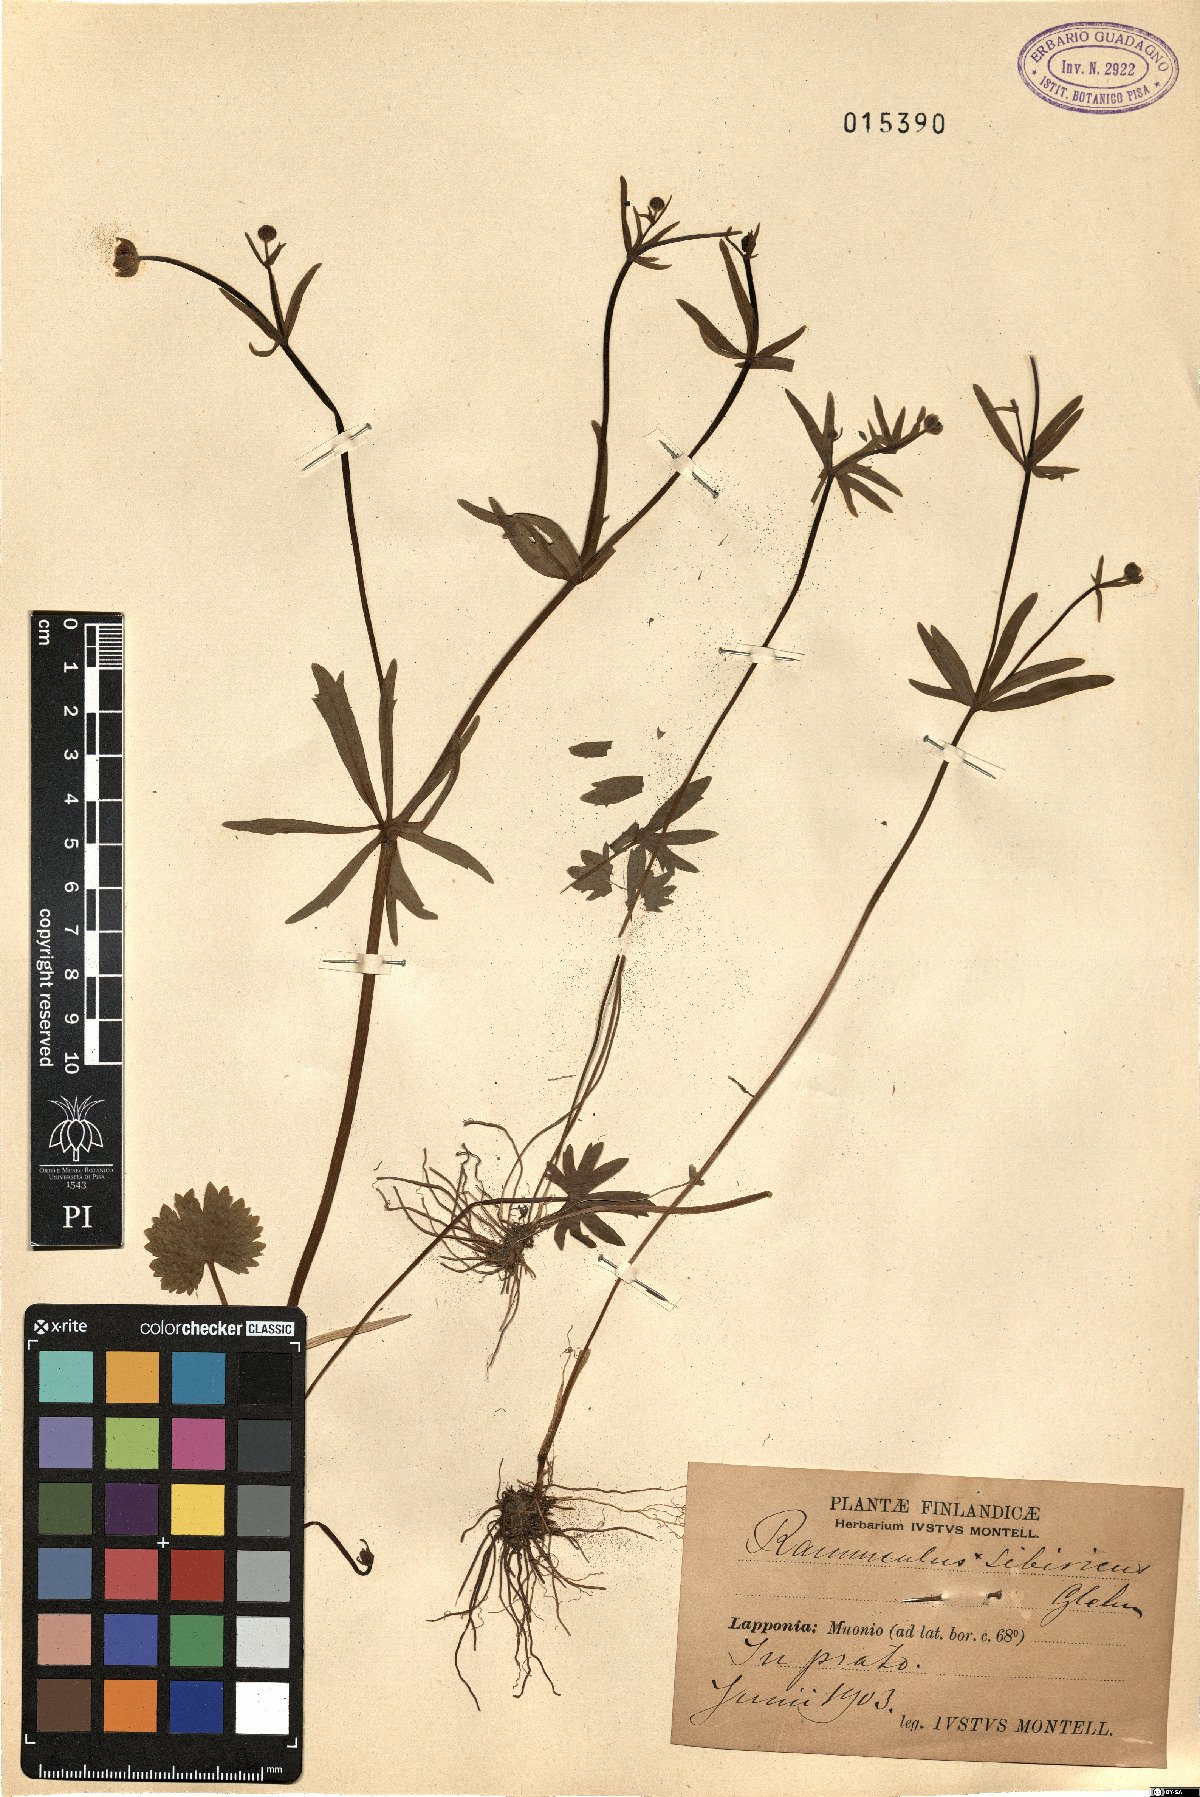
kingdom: Plantae
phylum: Tracheophyta
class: Magnoliopsida
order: Ranunculales
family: Ranunculaceae
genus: Ranunculus
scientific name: Ranunculus monophyllus
